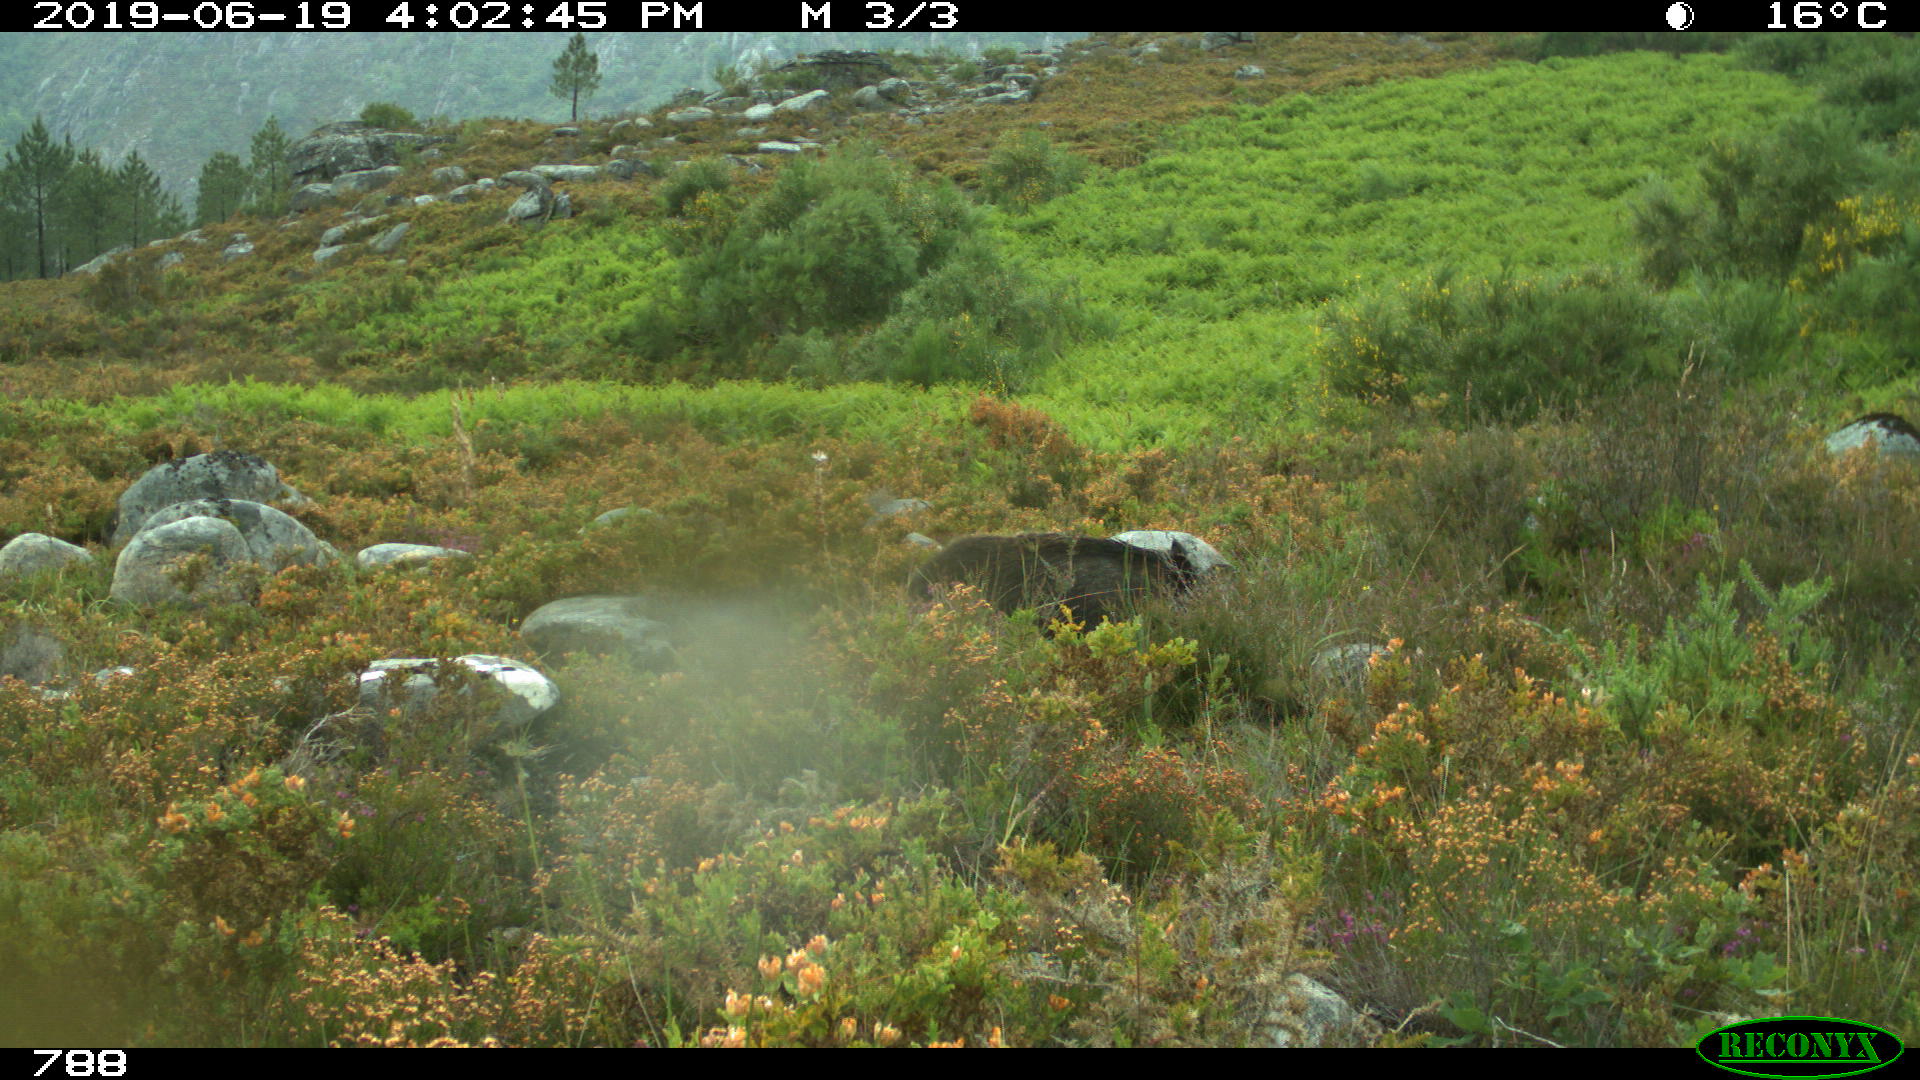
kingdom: Animalia
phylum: Chordata
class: Mammalia
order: Artiodactyla
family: Suidae
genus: Sus
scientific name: Sus scrofa
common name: Wild boar
